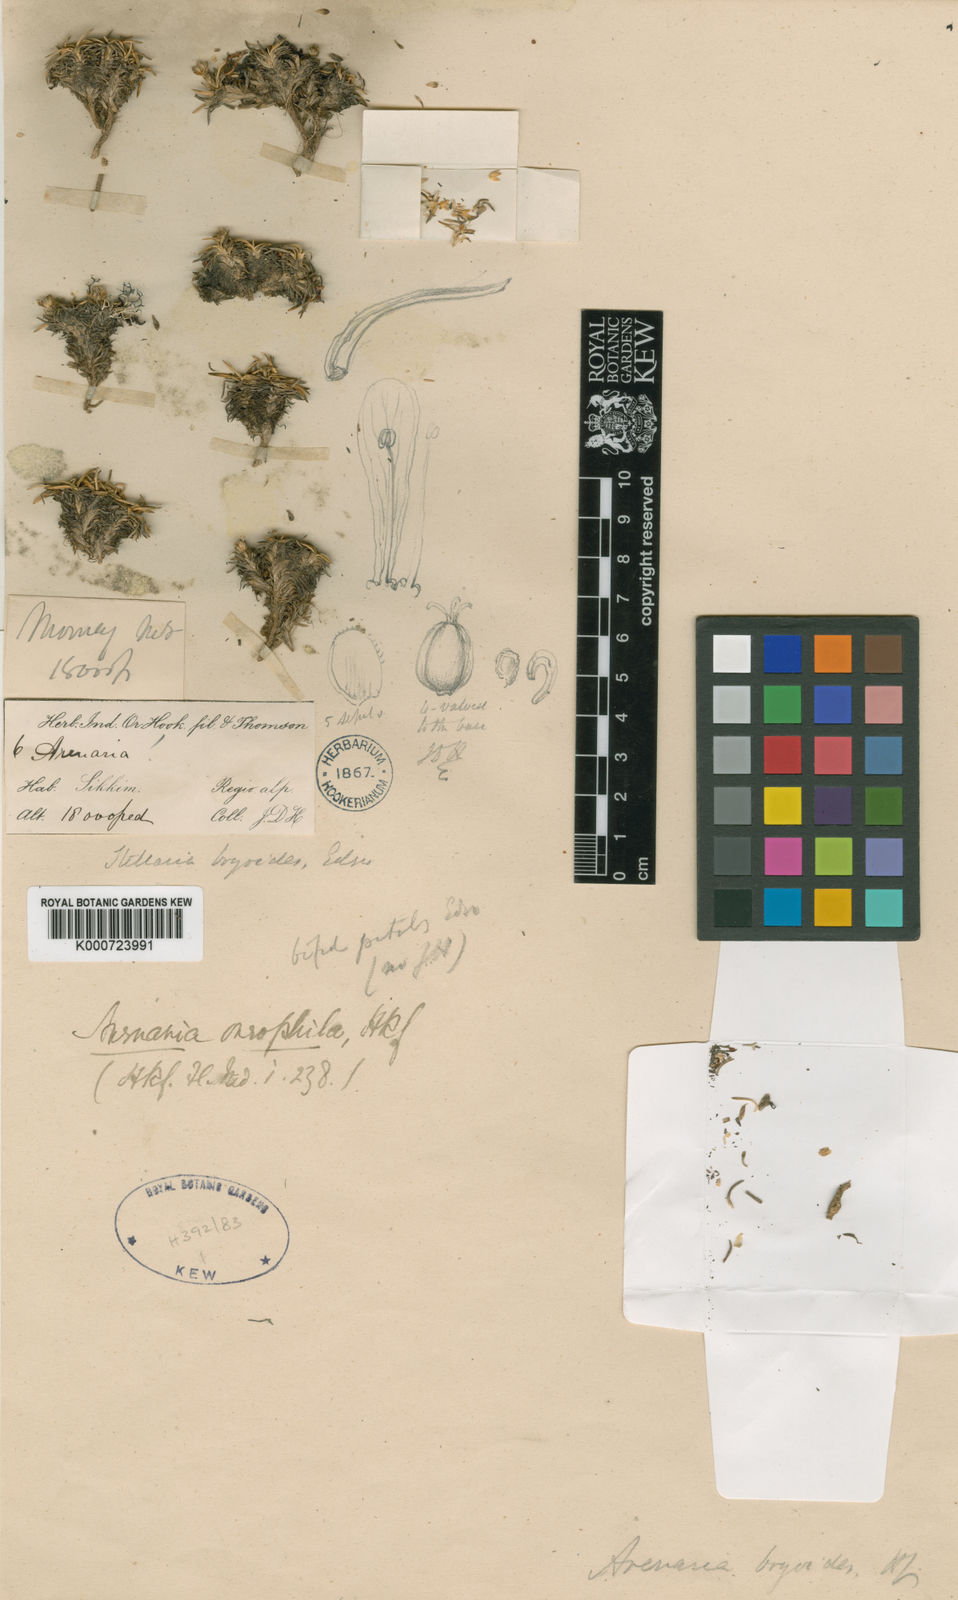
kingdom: Plantae
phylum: Tracheophyta
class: Magnoliopsida
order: Caryophyllales
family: Caryophyllaceae
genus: Arenaria
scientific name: Arenaria oreophila
